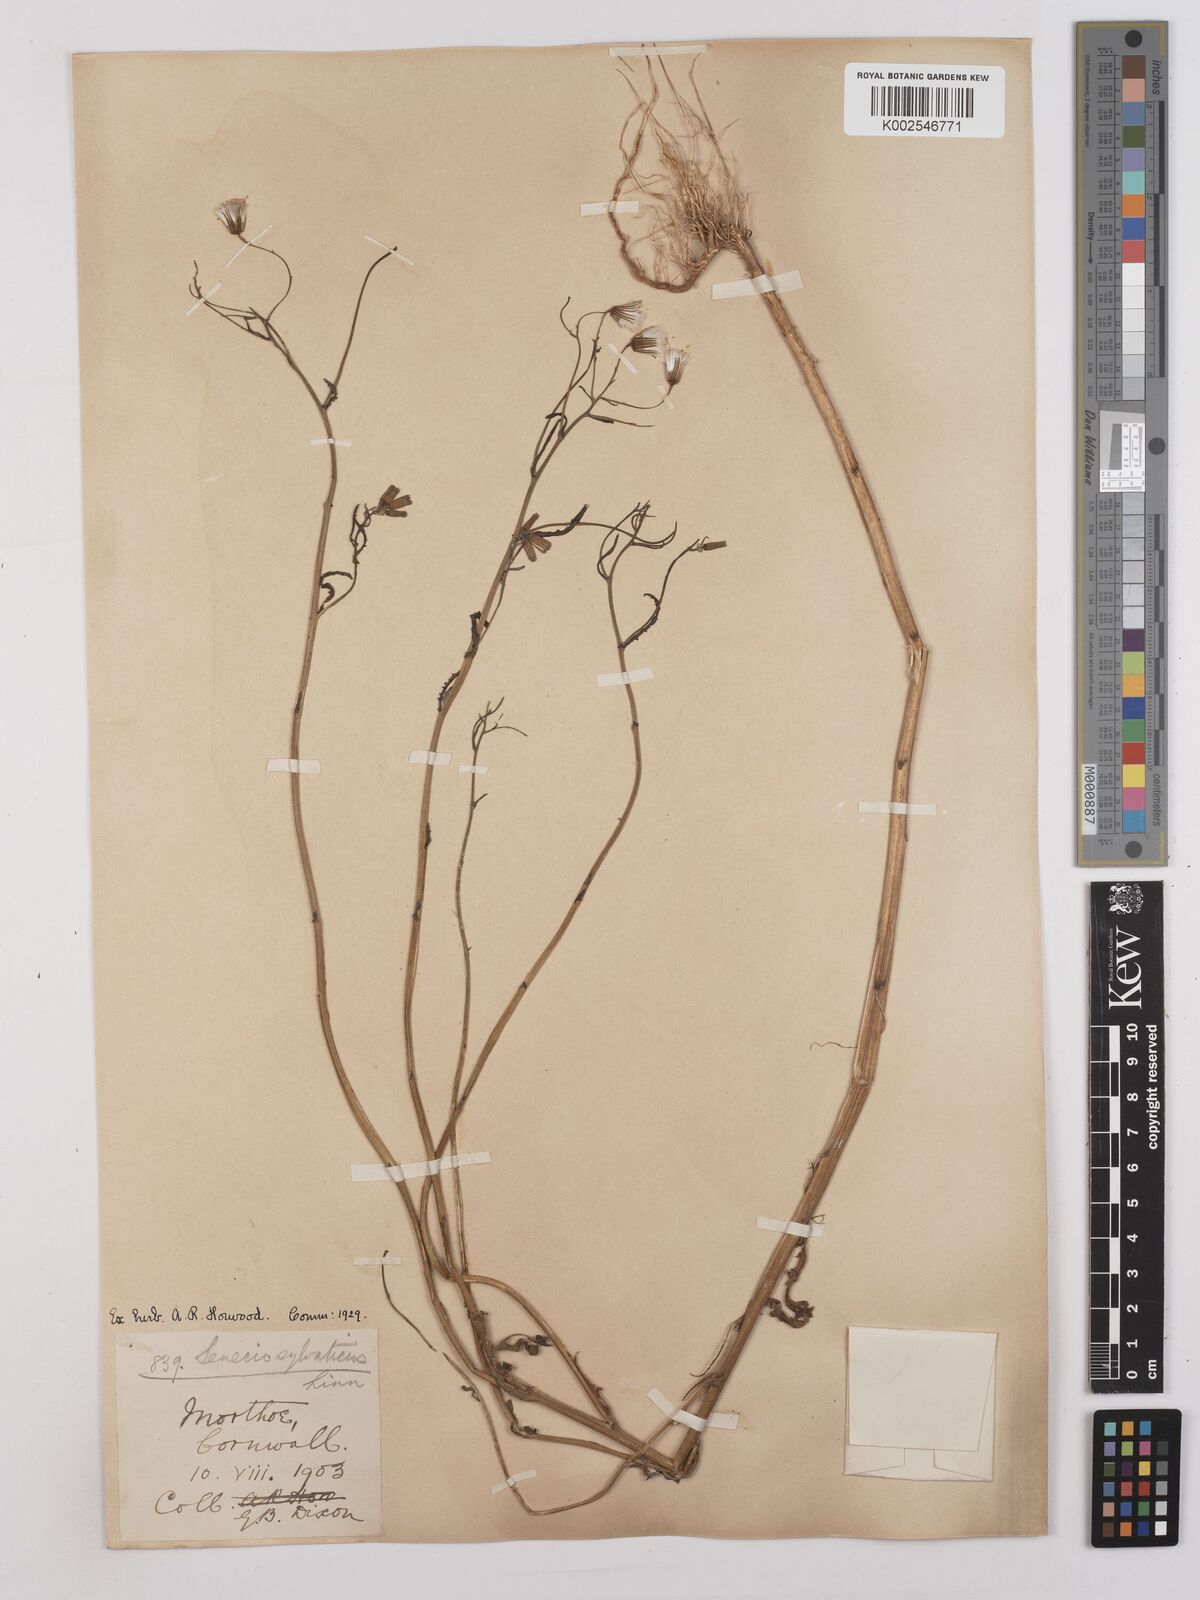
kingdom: Plantae
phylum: Tracheophyta
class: Magnoliopsida
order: Asterales
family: Asteraceae
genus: Senecio
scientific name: Senecio sylvaticus
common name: Woodland ragwort
